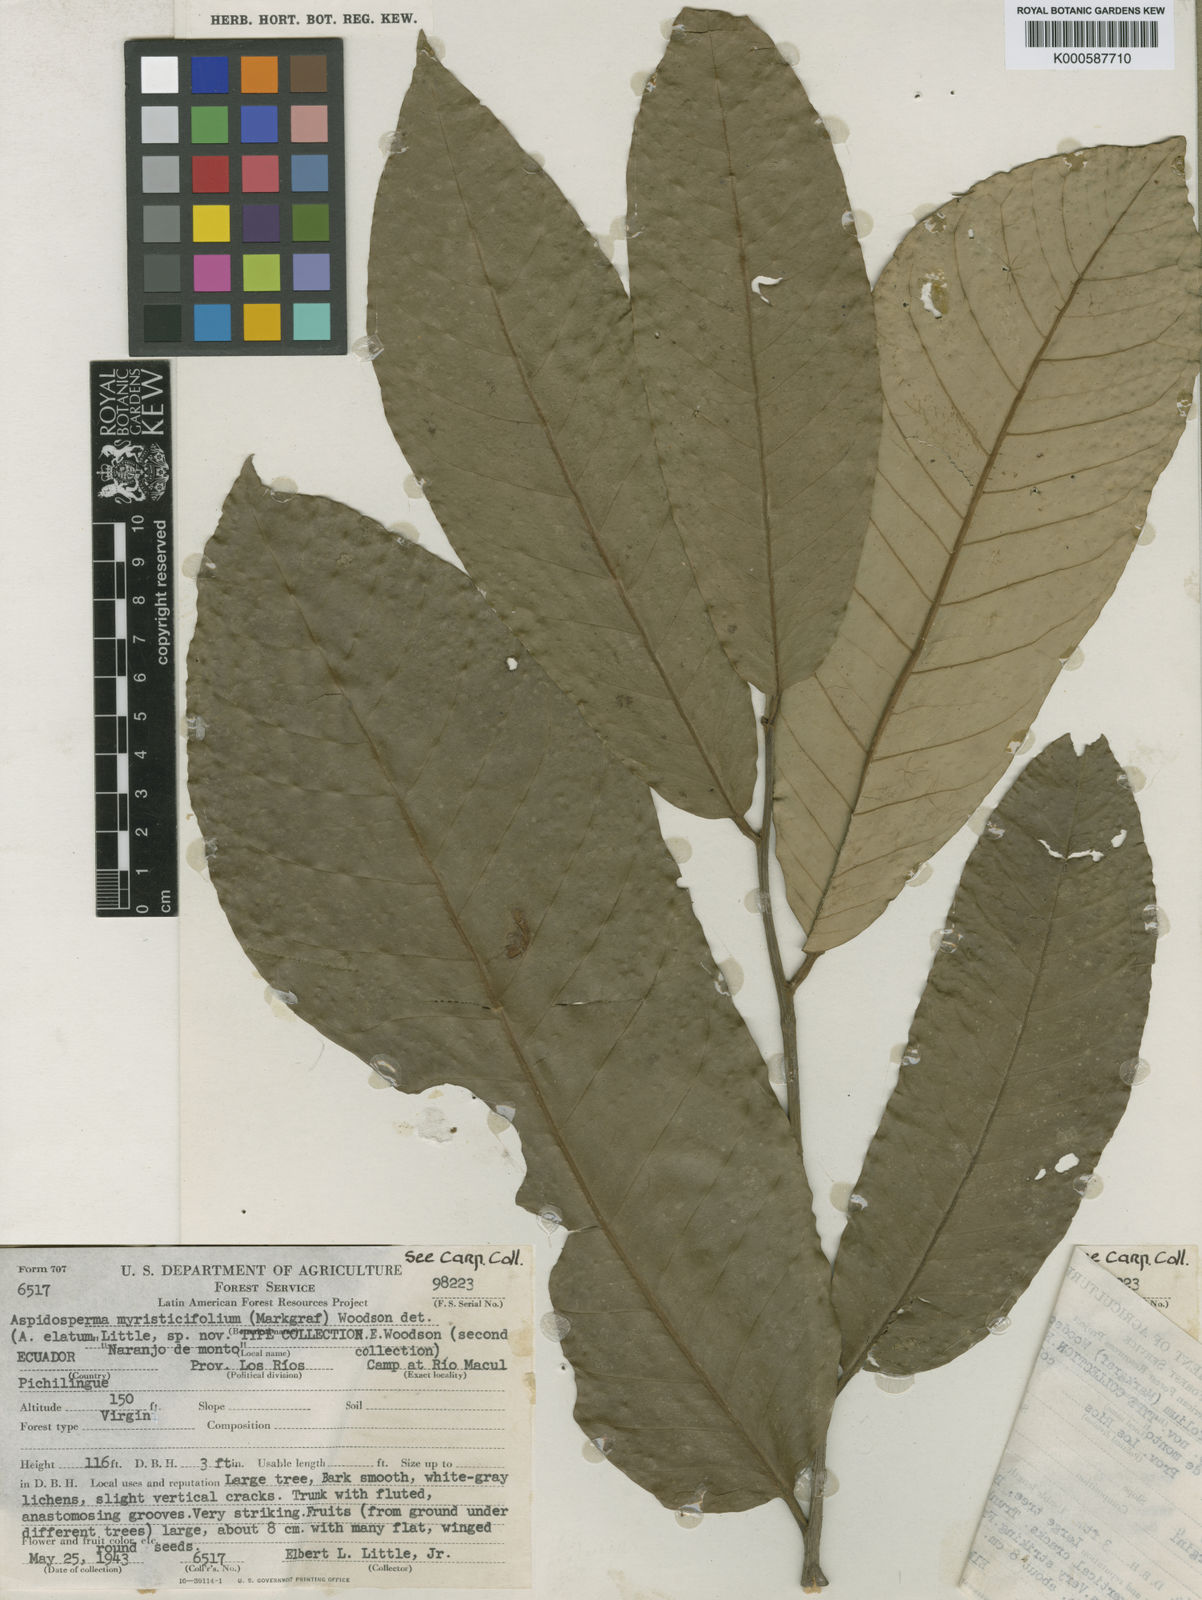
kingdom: Plantae
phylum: Tracheophyta
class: Magnoliopsida
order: Gentianales
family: Apocynaceae
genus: Aspidosperma
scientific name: Aspidosperma myristicifolium
